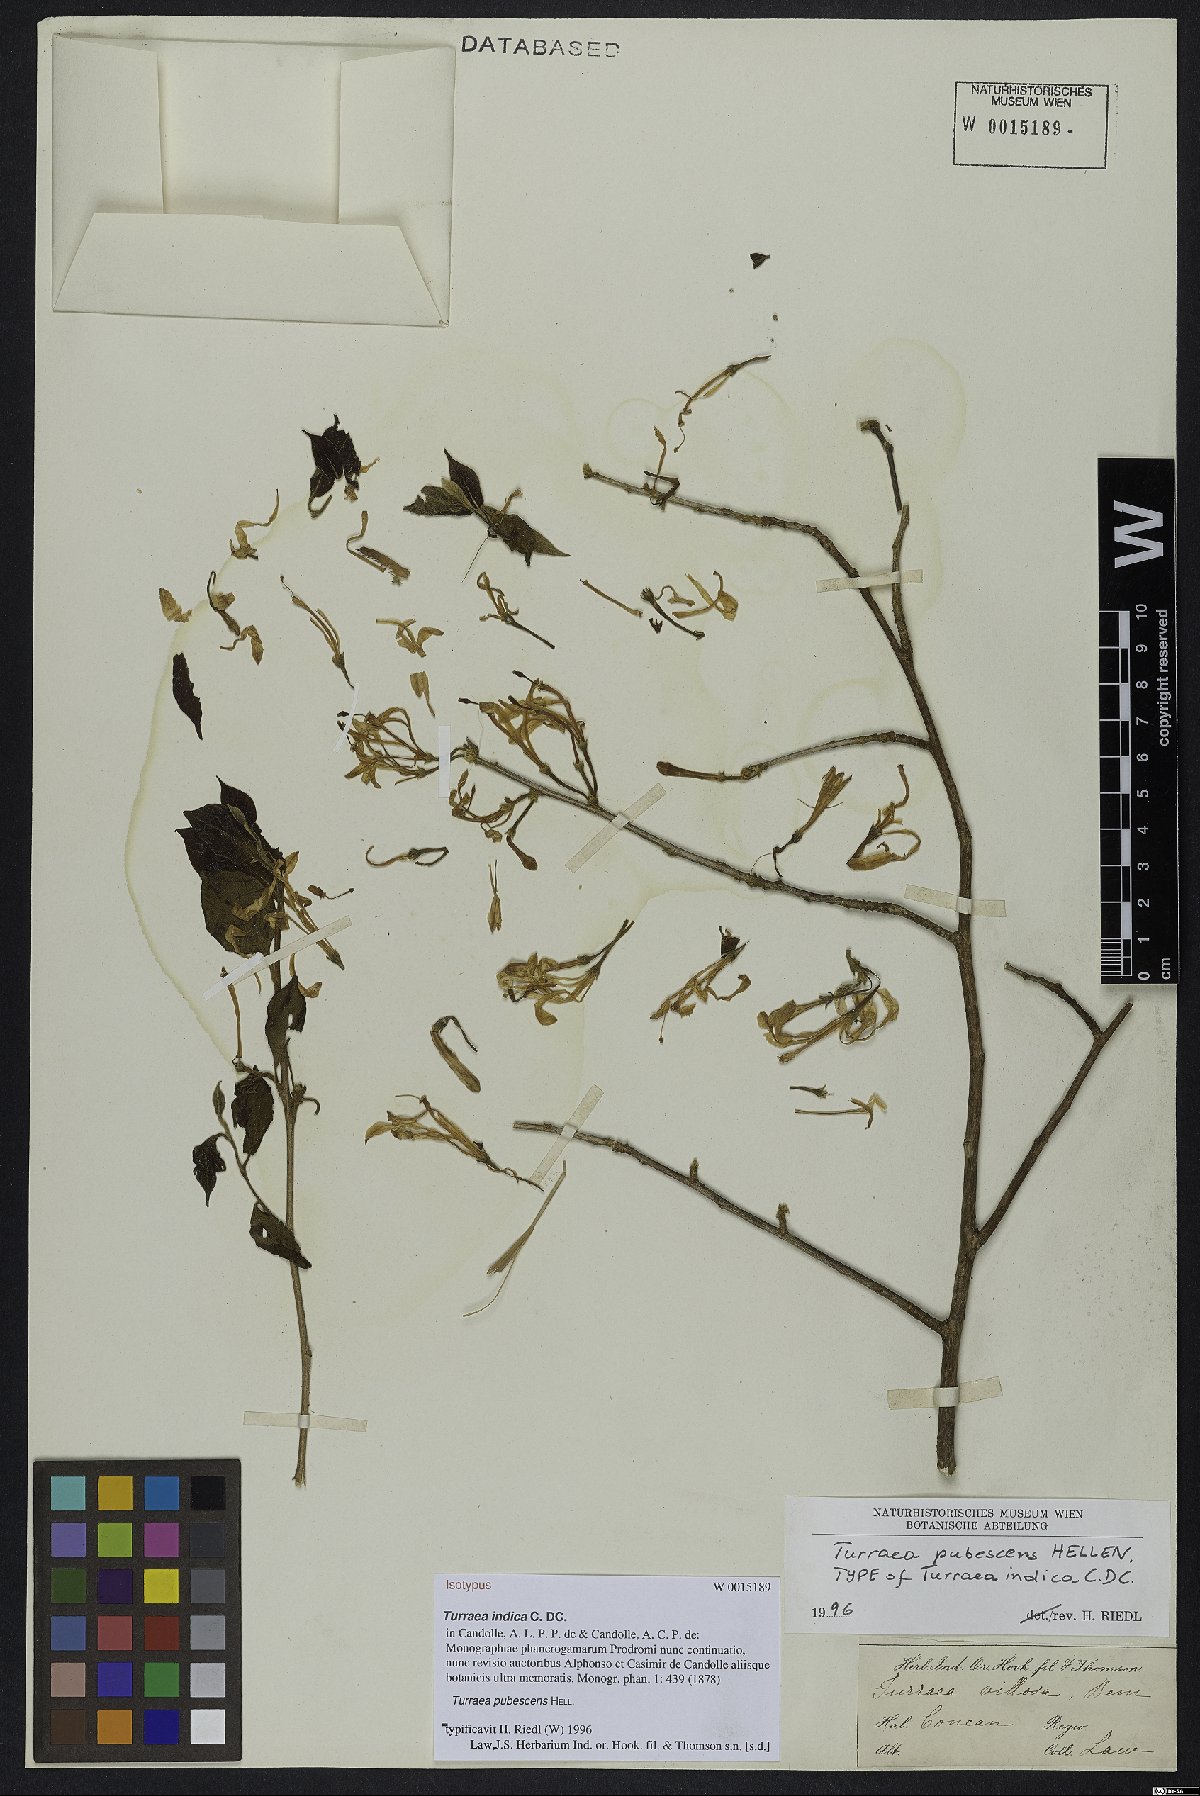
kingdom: Plantae
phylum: Tracheophyta
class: Magnoliopsida
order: Sapindales
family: Meliaceae
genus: Turraea
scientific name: Turraea pubescens
